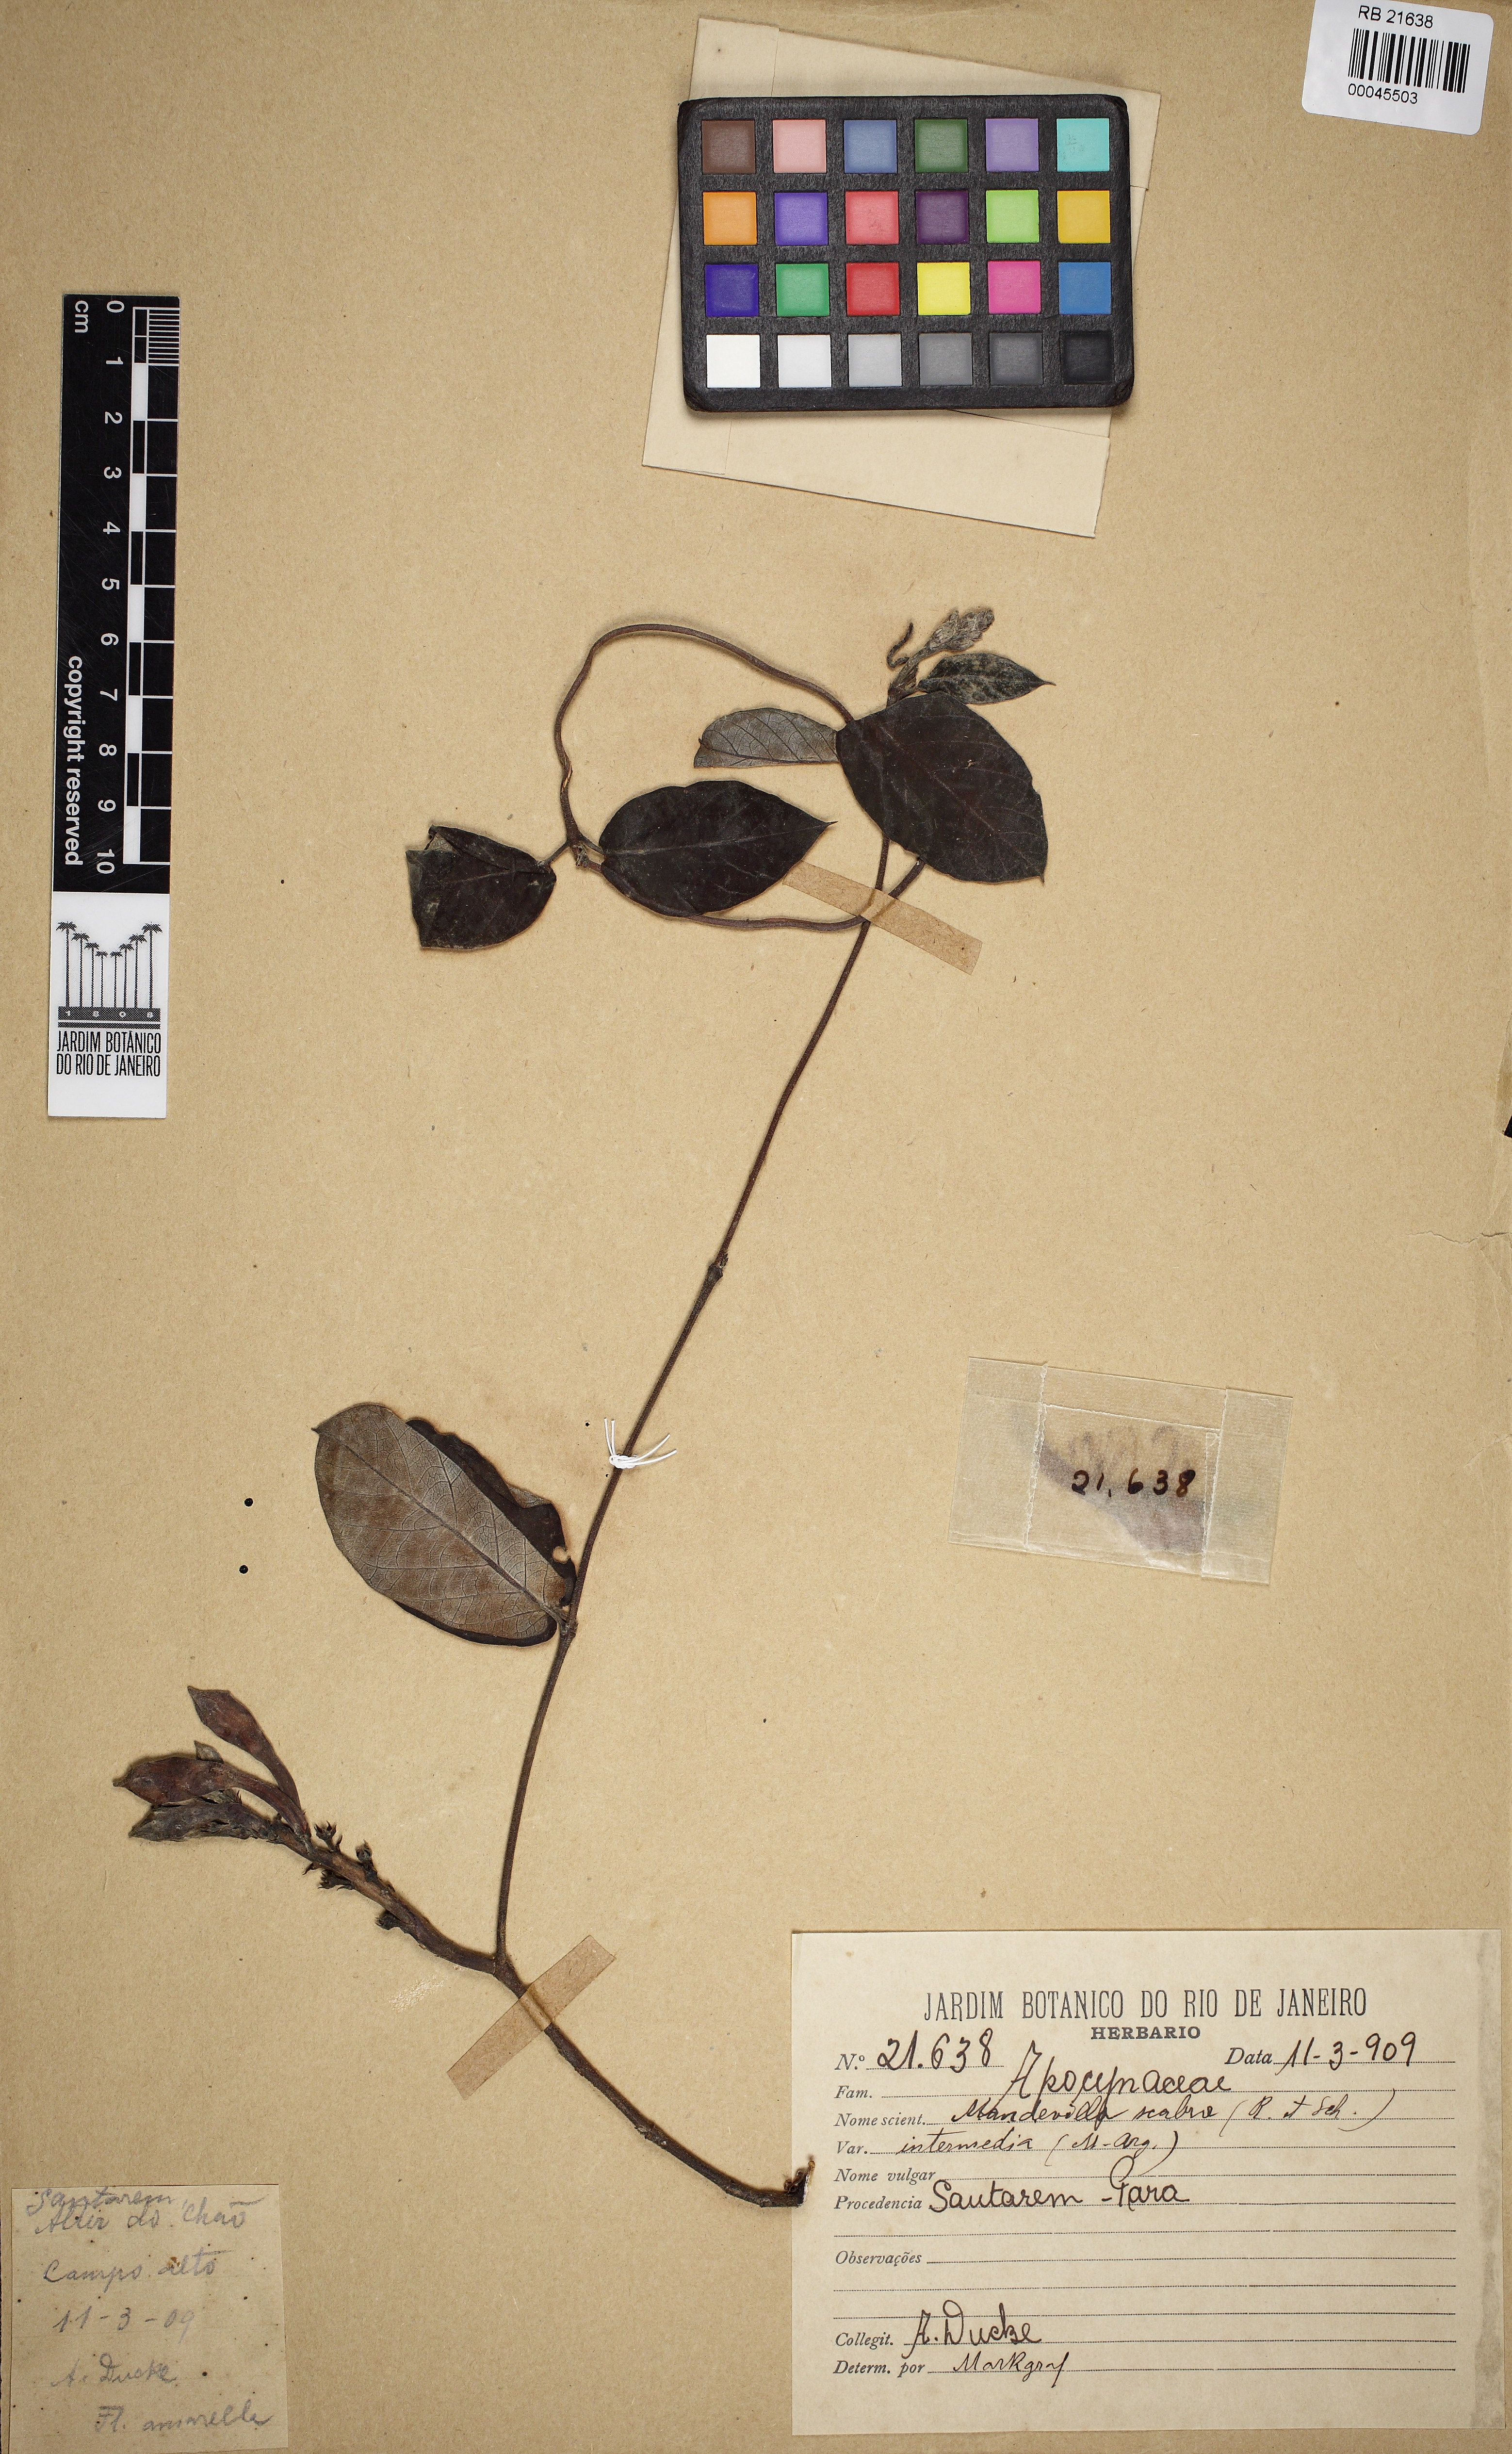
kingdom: Plantae
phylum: Tracheophyta
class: Magnoliopsida
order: Gentianales
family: Apocynaceae
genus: Mandevilla
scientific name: Mandevilla scabra
